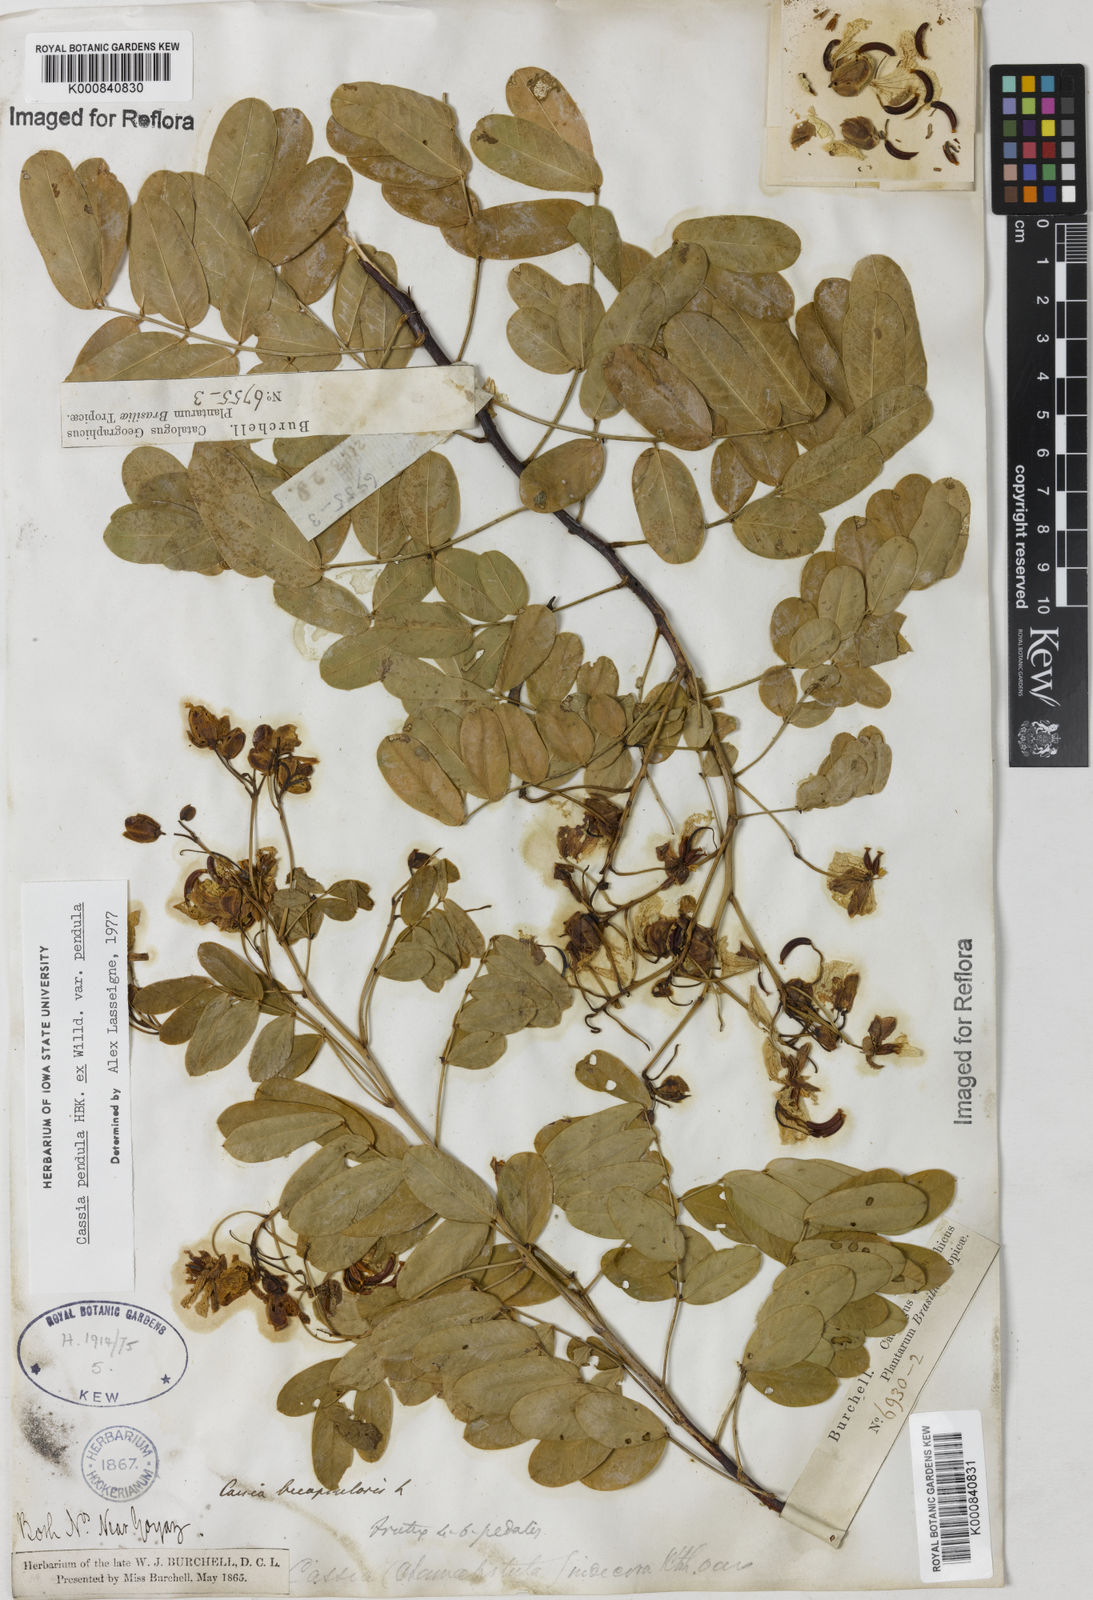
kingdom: Plantae
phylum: Tracheophyta
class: Magnoliopsida
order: Fabales
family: Fabaceae
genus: Senna
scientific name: Senna pendula
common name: Easter cassia
